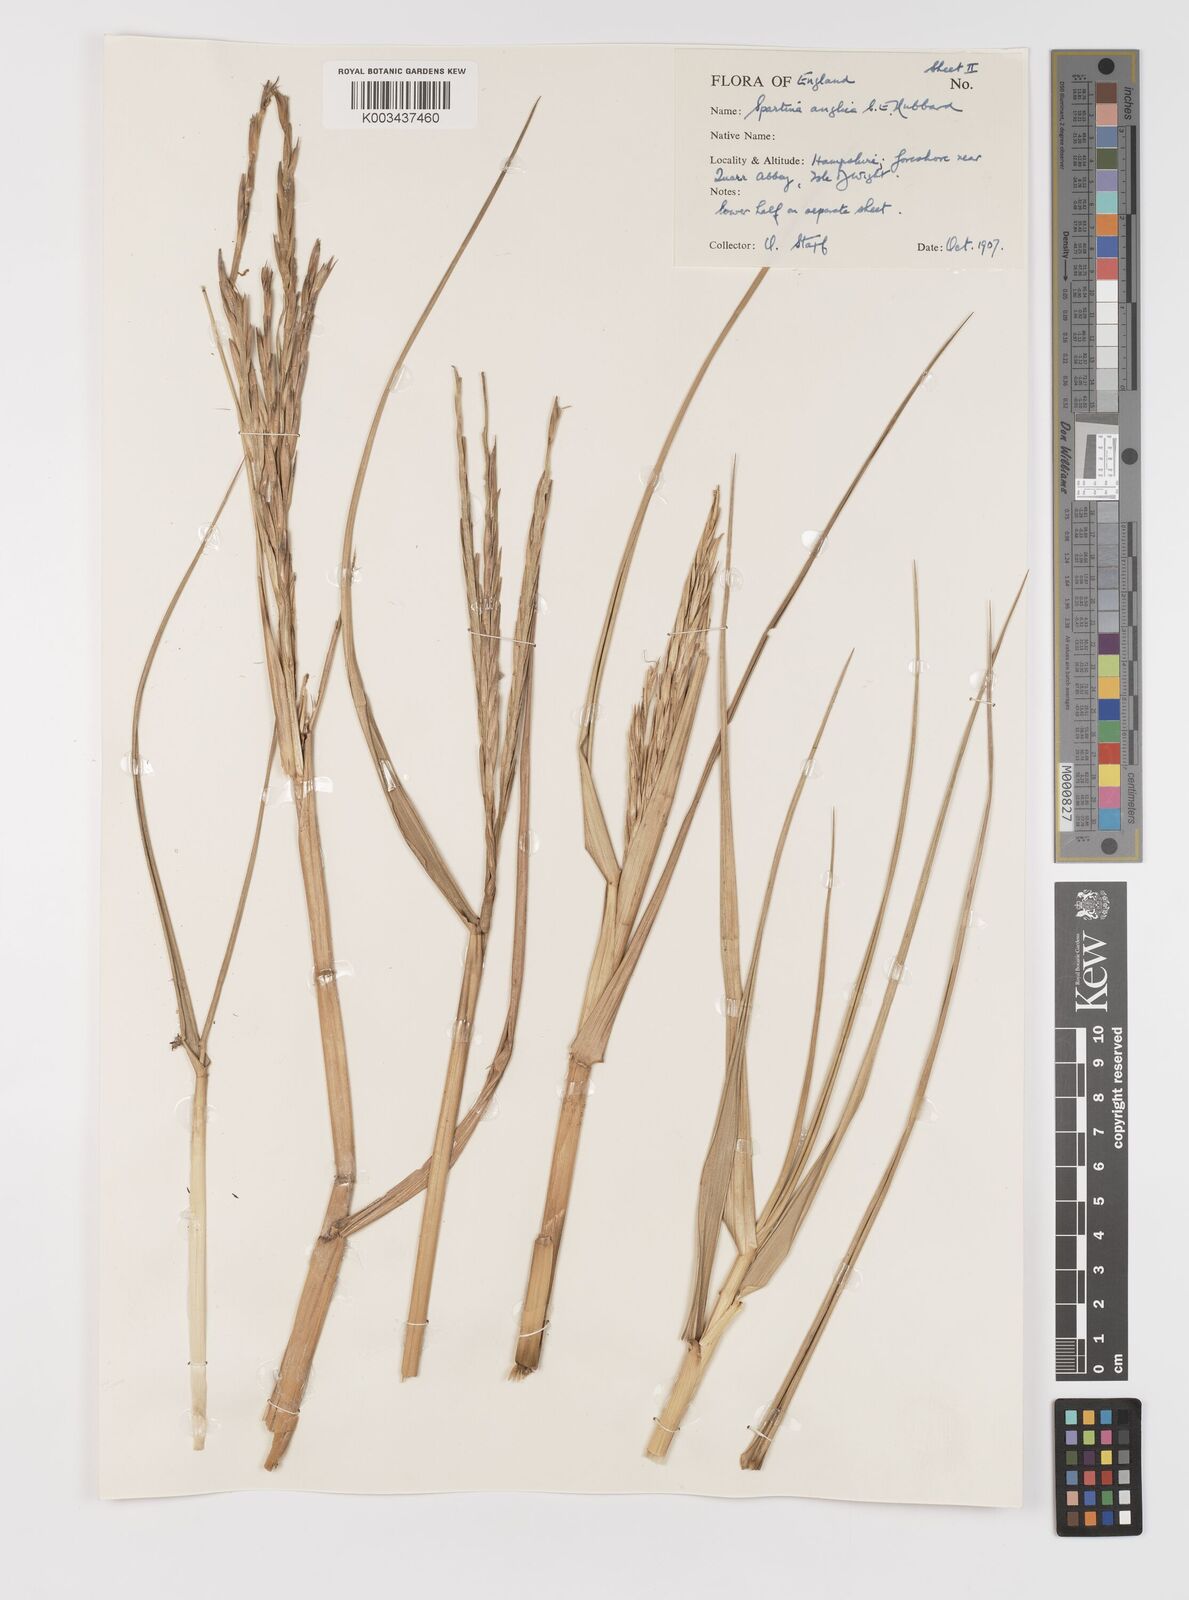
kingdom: Plantae
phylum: Tracheophyta
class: Liliopsida
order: Poales
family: Poaceae
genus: Sporobolus
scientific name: Sporobolus anglicus
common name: English cordgrass
